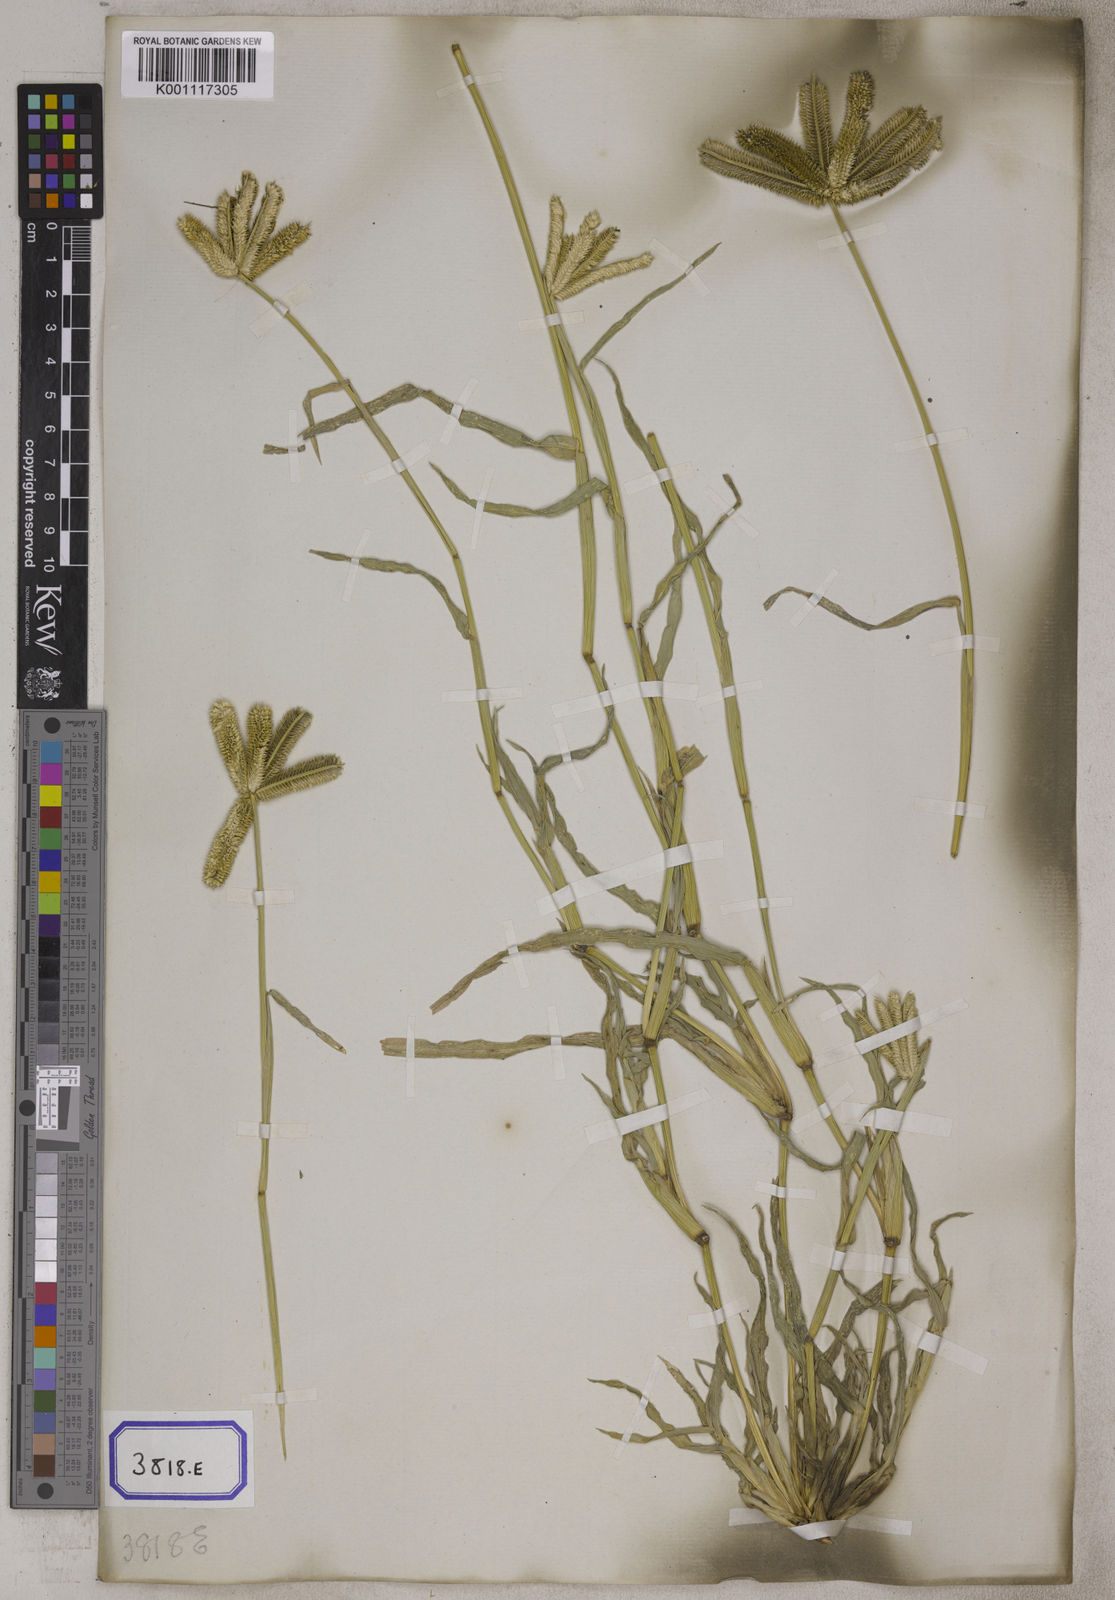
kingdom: Plantae
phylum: Tracheophyta
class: Liliopsida
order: Poales
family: Poaceae
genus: Eleusine
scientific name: Eleusine
